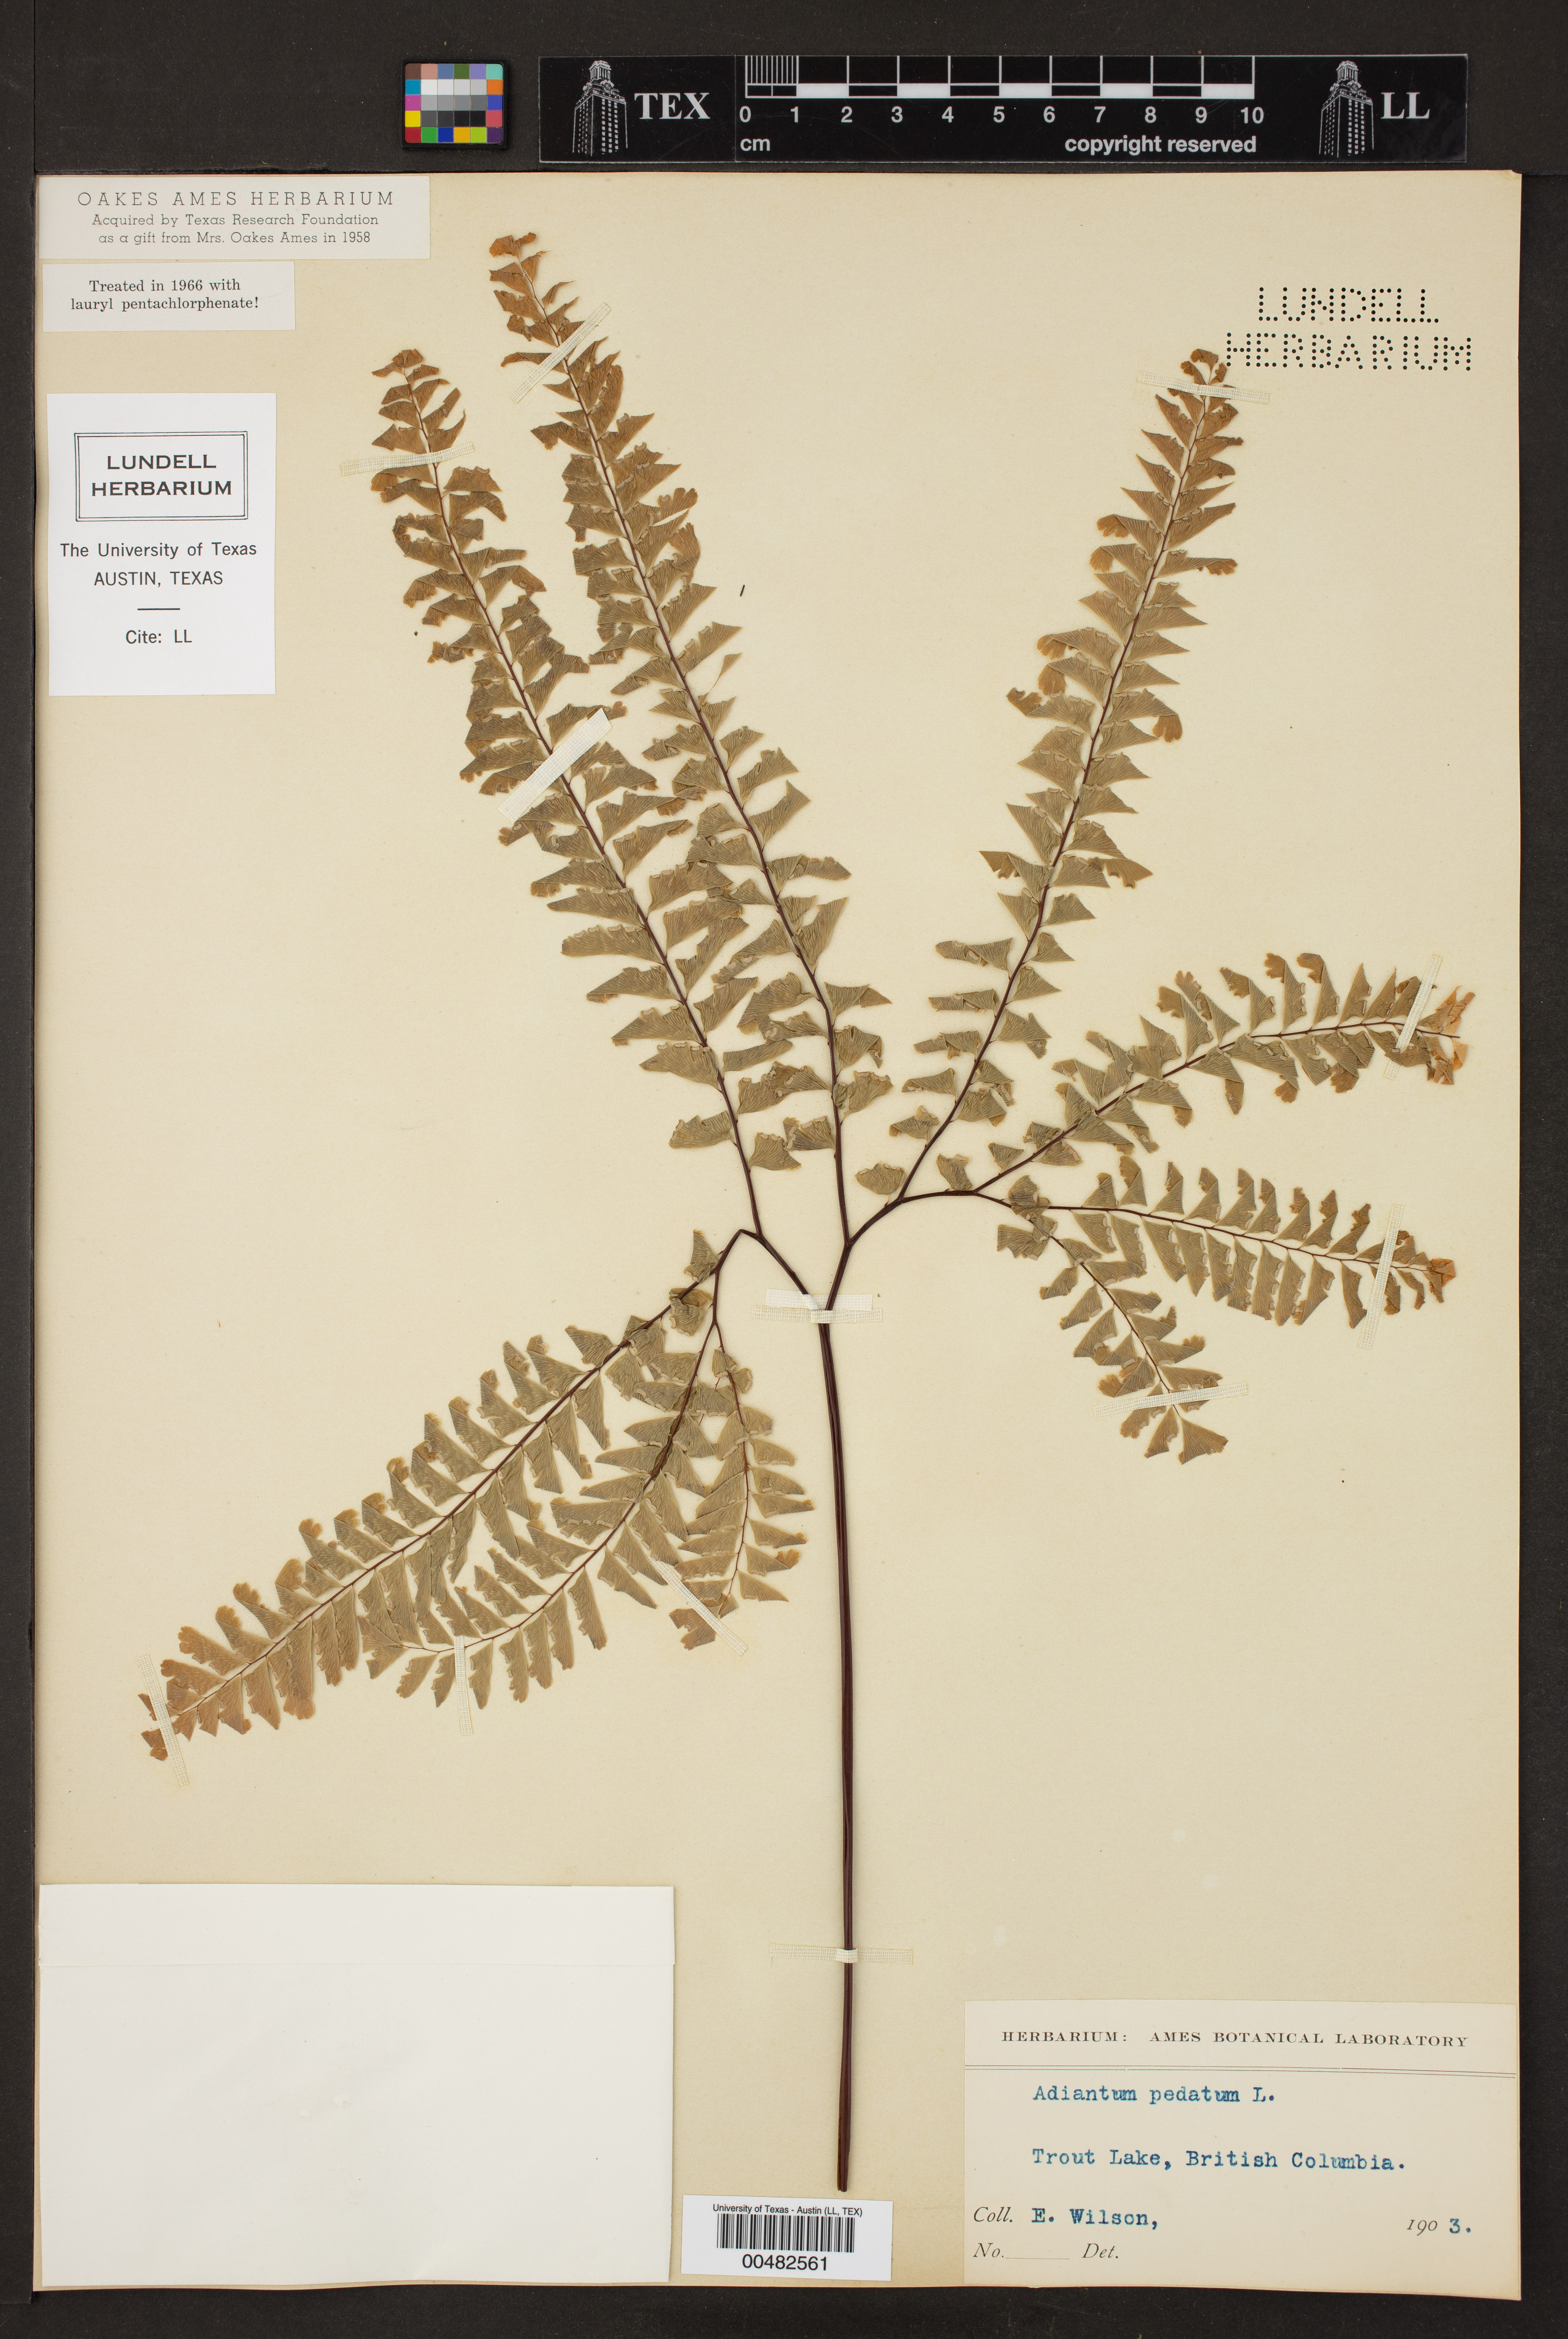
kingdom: Plantae
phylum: Tracheophyta
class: Polypodiopsida
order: Polypodiales
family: Pteridaceae
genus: Adiantum
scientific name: Adiantum pedatum
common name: Five-finger fern
